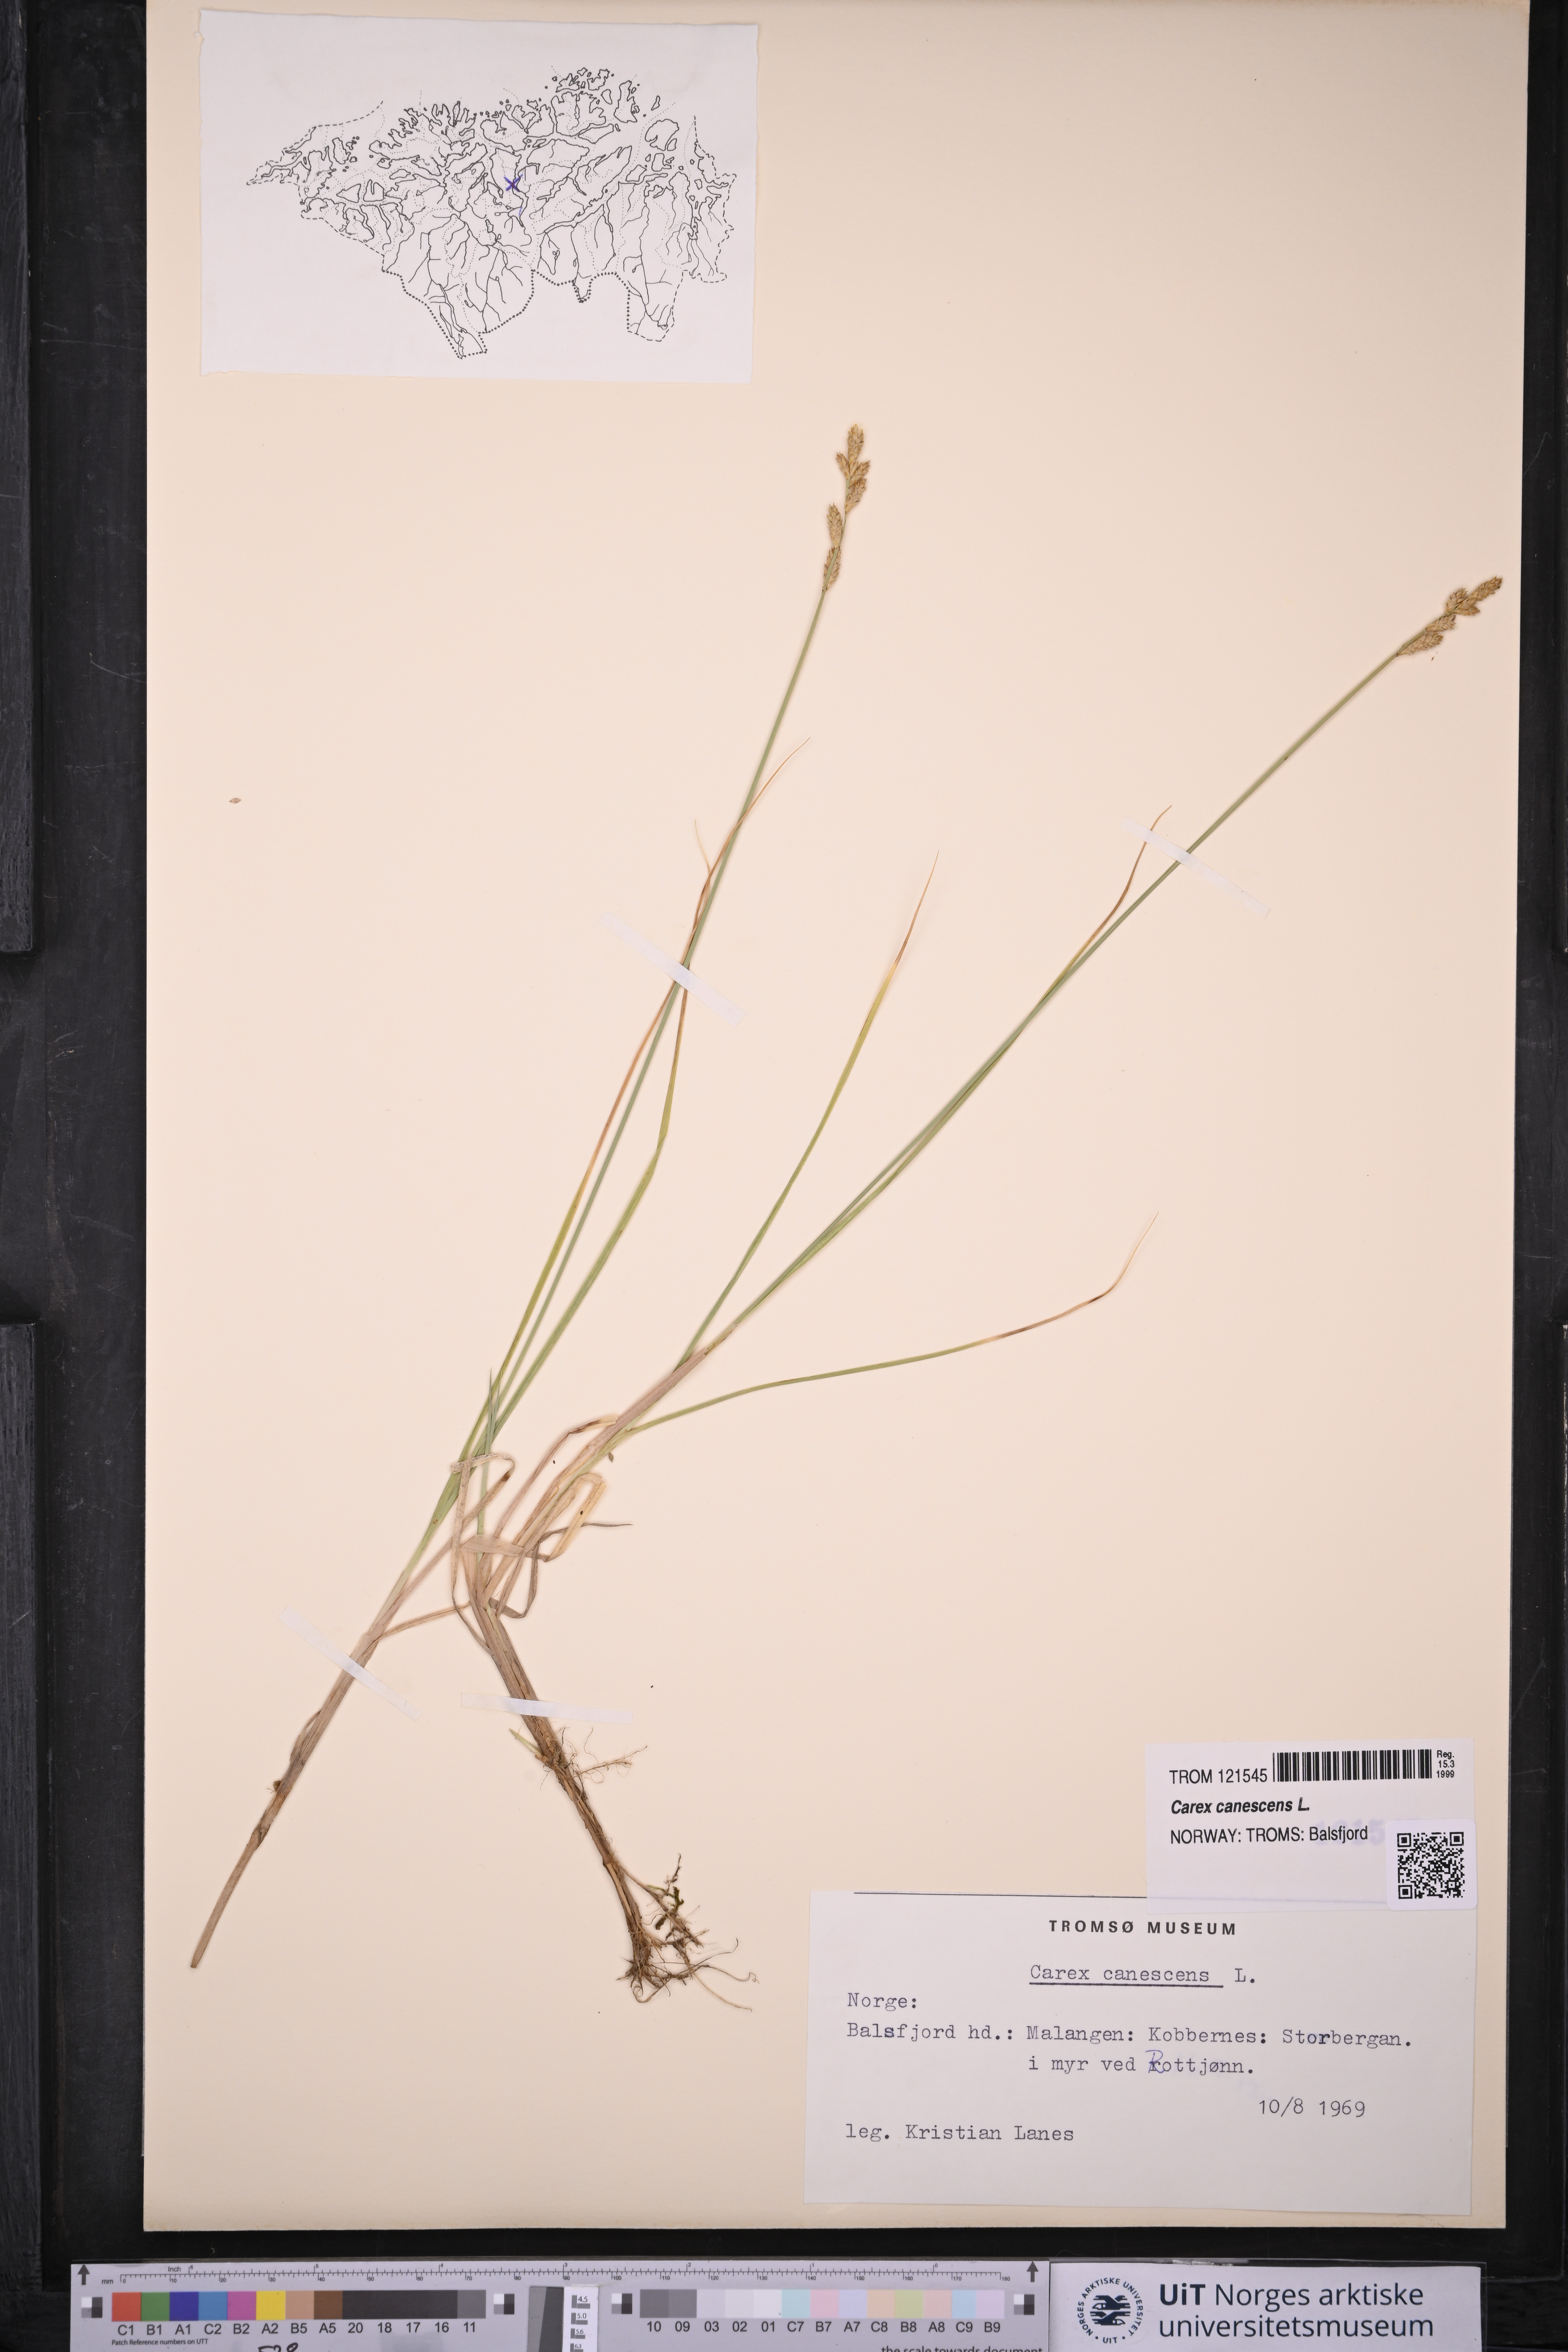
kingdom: Plantae
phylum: Tracheophyta
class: Liliopsida
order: Poales
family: Cyperaceae
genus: Carex
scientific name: Carex canescens
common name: White sedge
